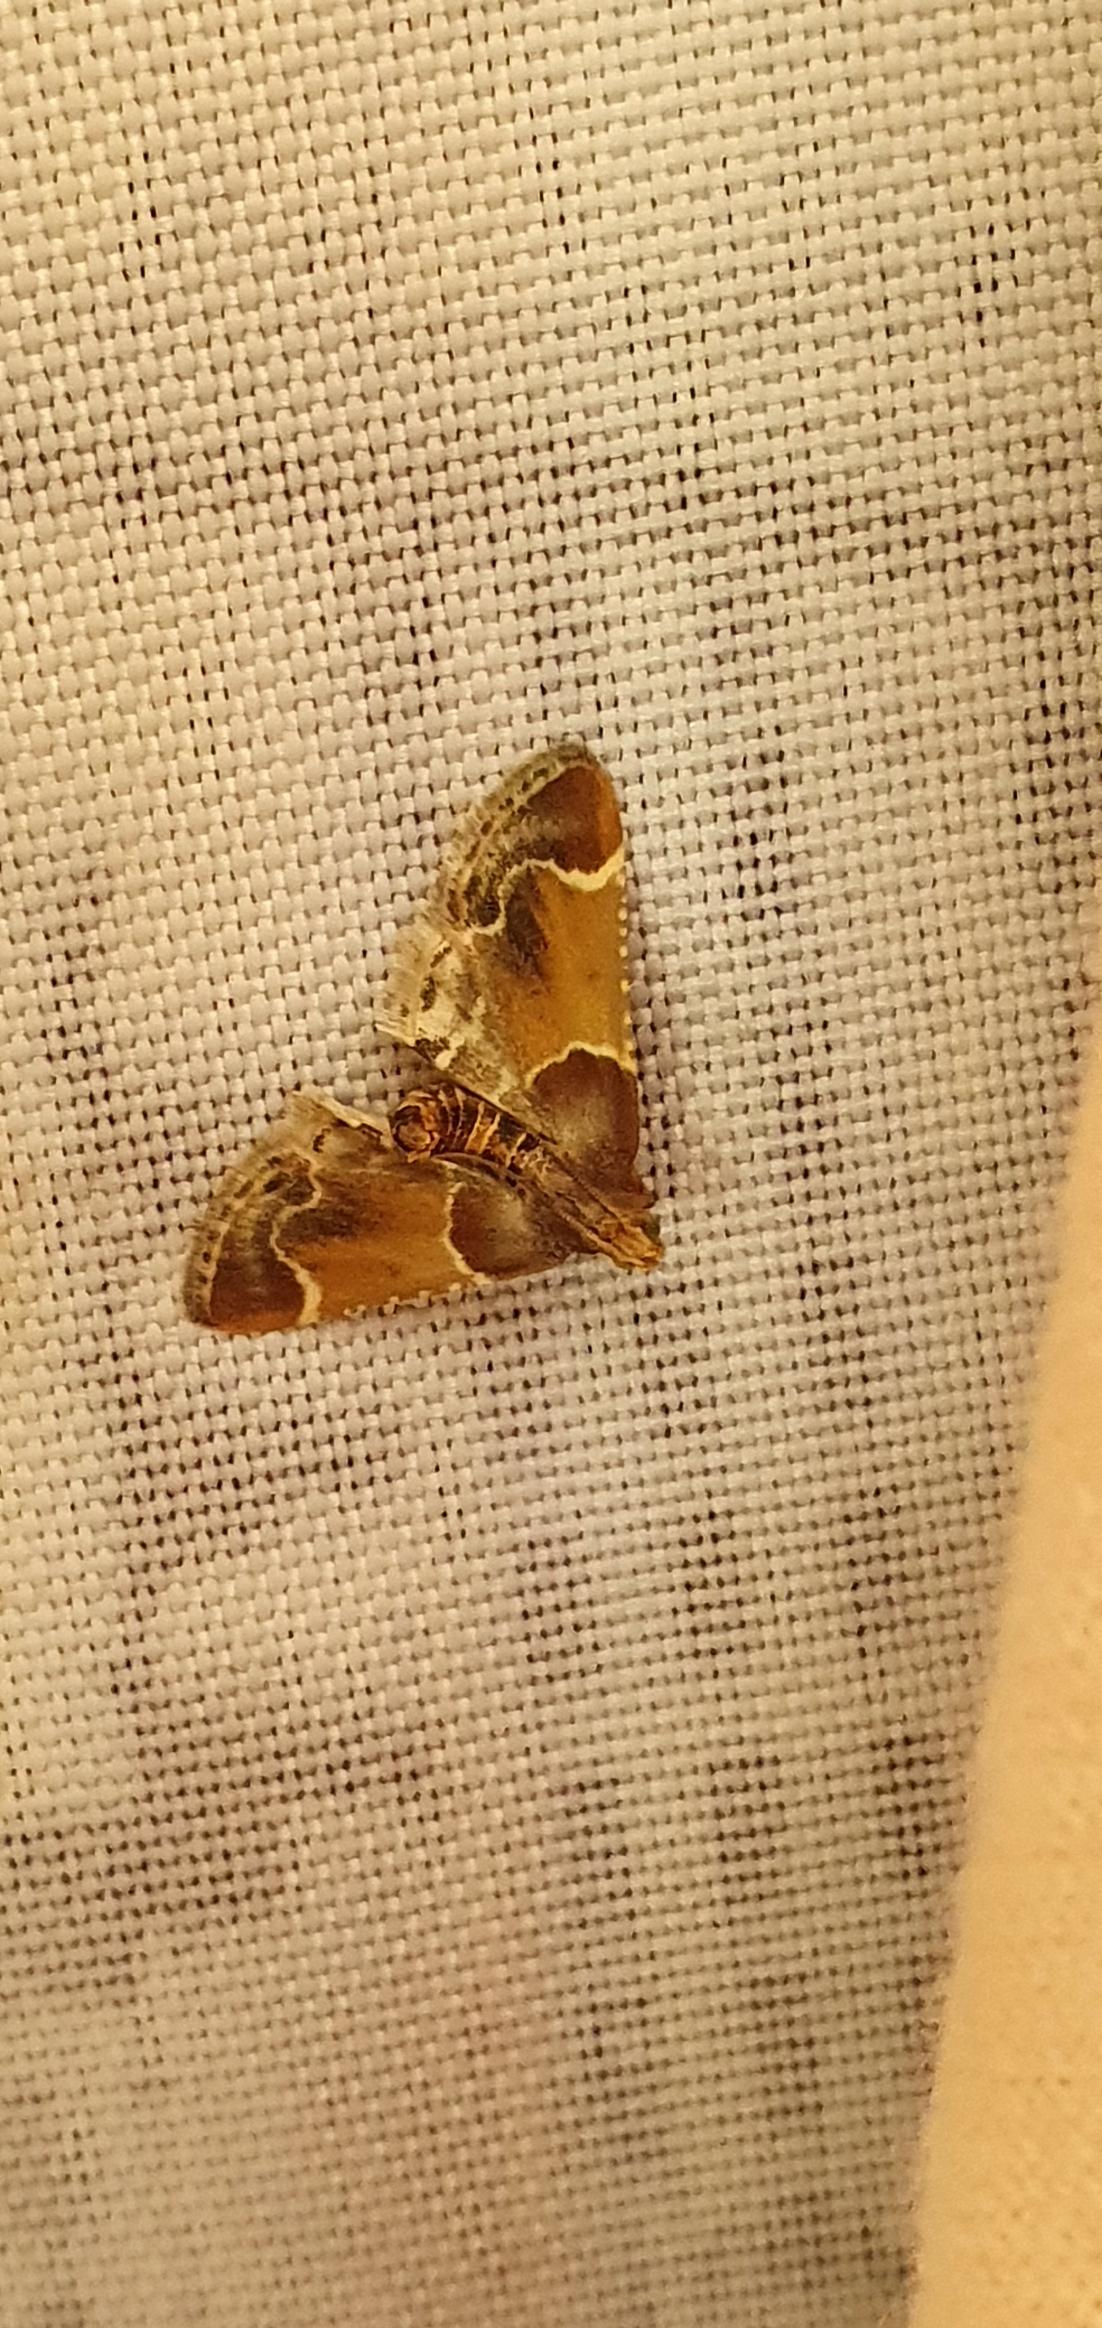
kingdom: Animalia
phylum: Arthropoda
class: Insecta
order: Lepidoptera
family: Pyralidae
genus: Pyralis
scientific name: Pyralis farinalis
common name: Stort melmøl
